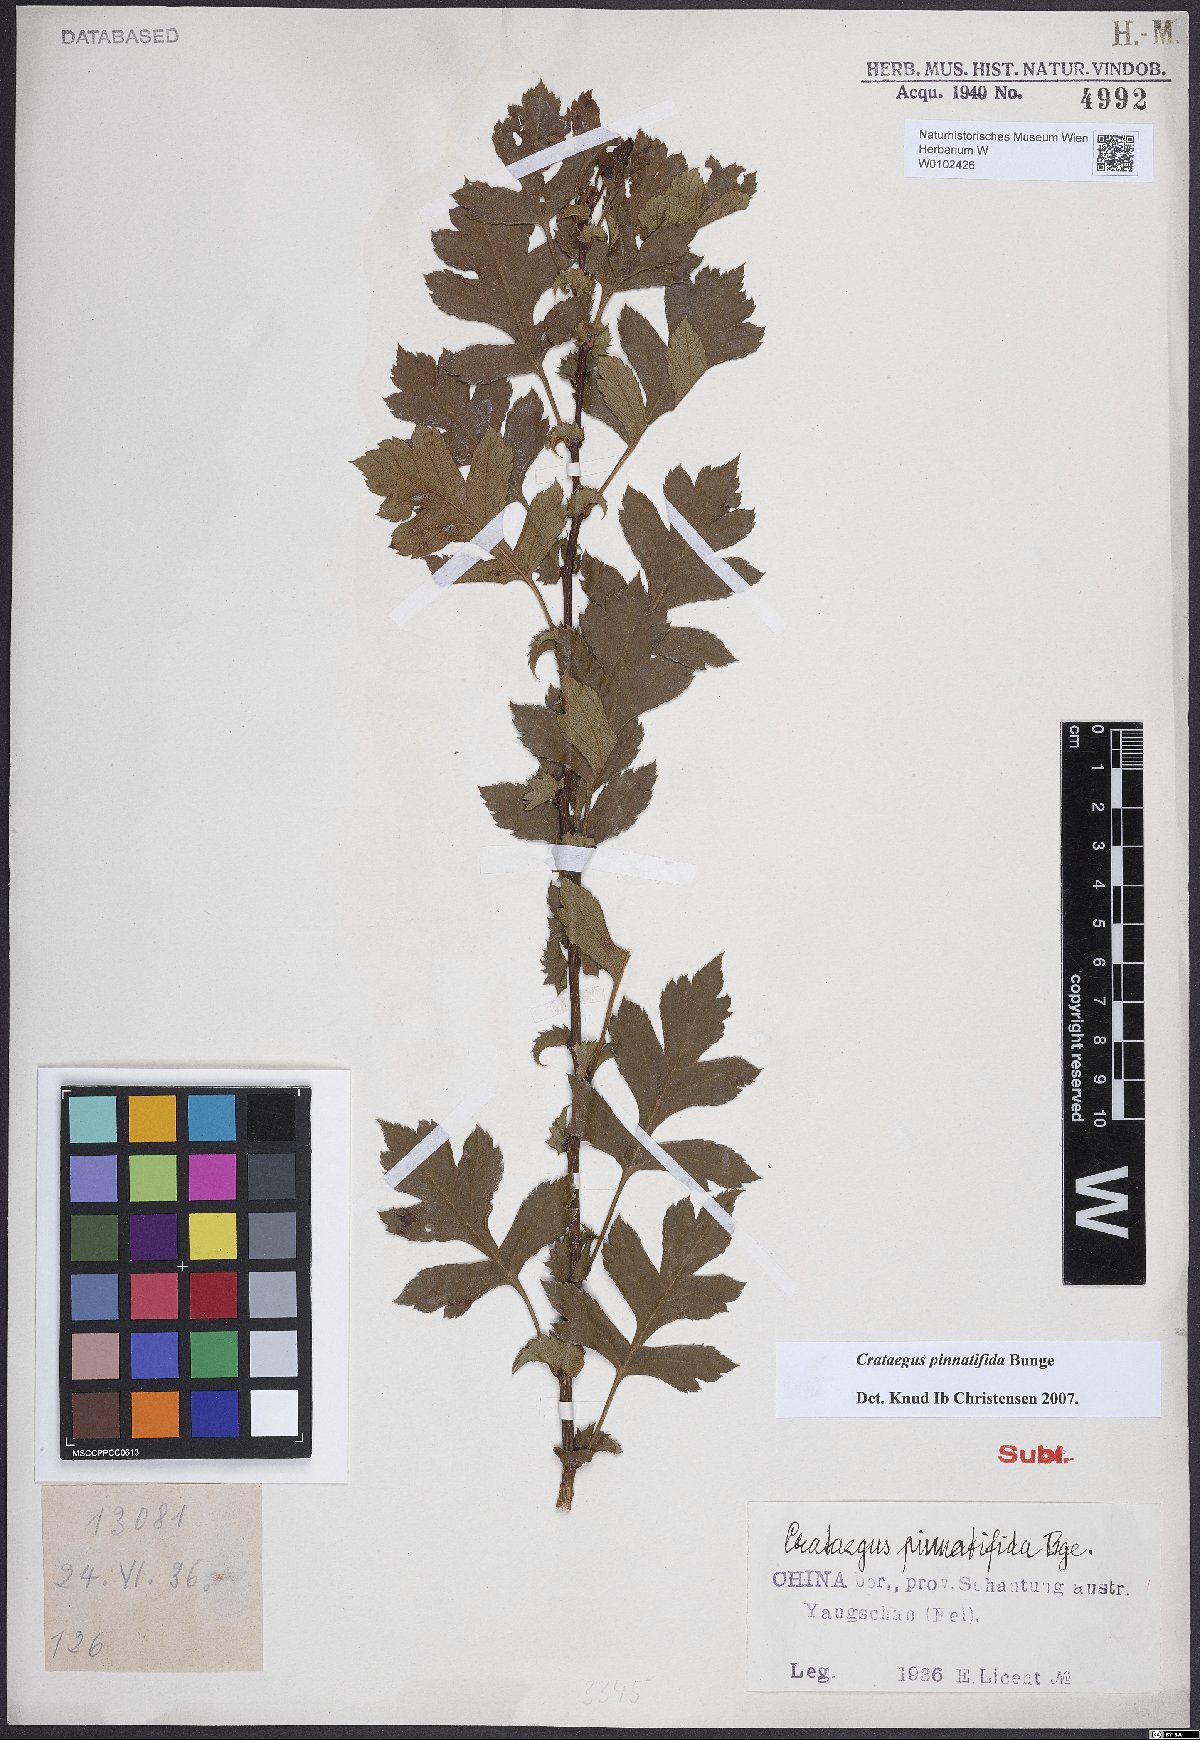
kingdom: Plantae
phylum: Tracheophyta
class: Magnoliopsida
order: Rosales
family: Rosaceae
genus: Crataegus
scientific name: Crataegus pinnatifida
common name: Chinese haw
